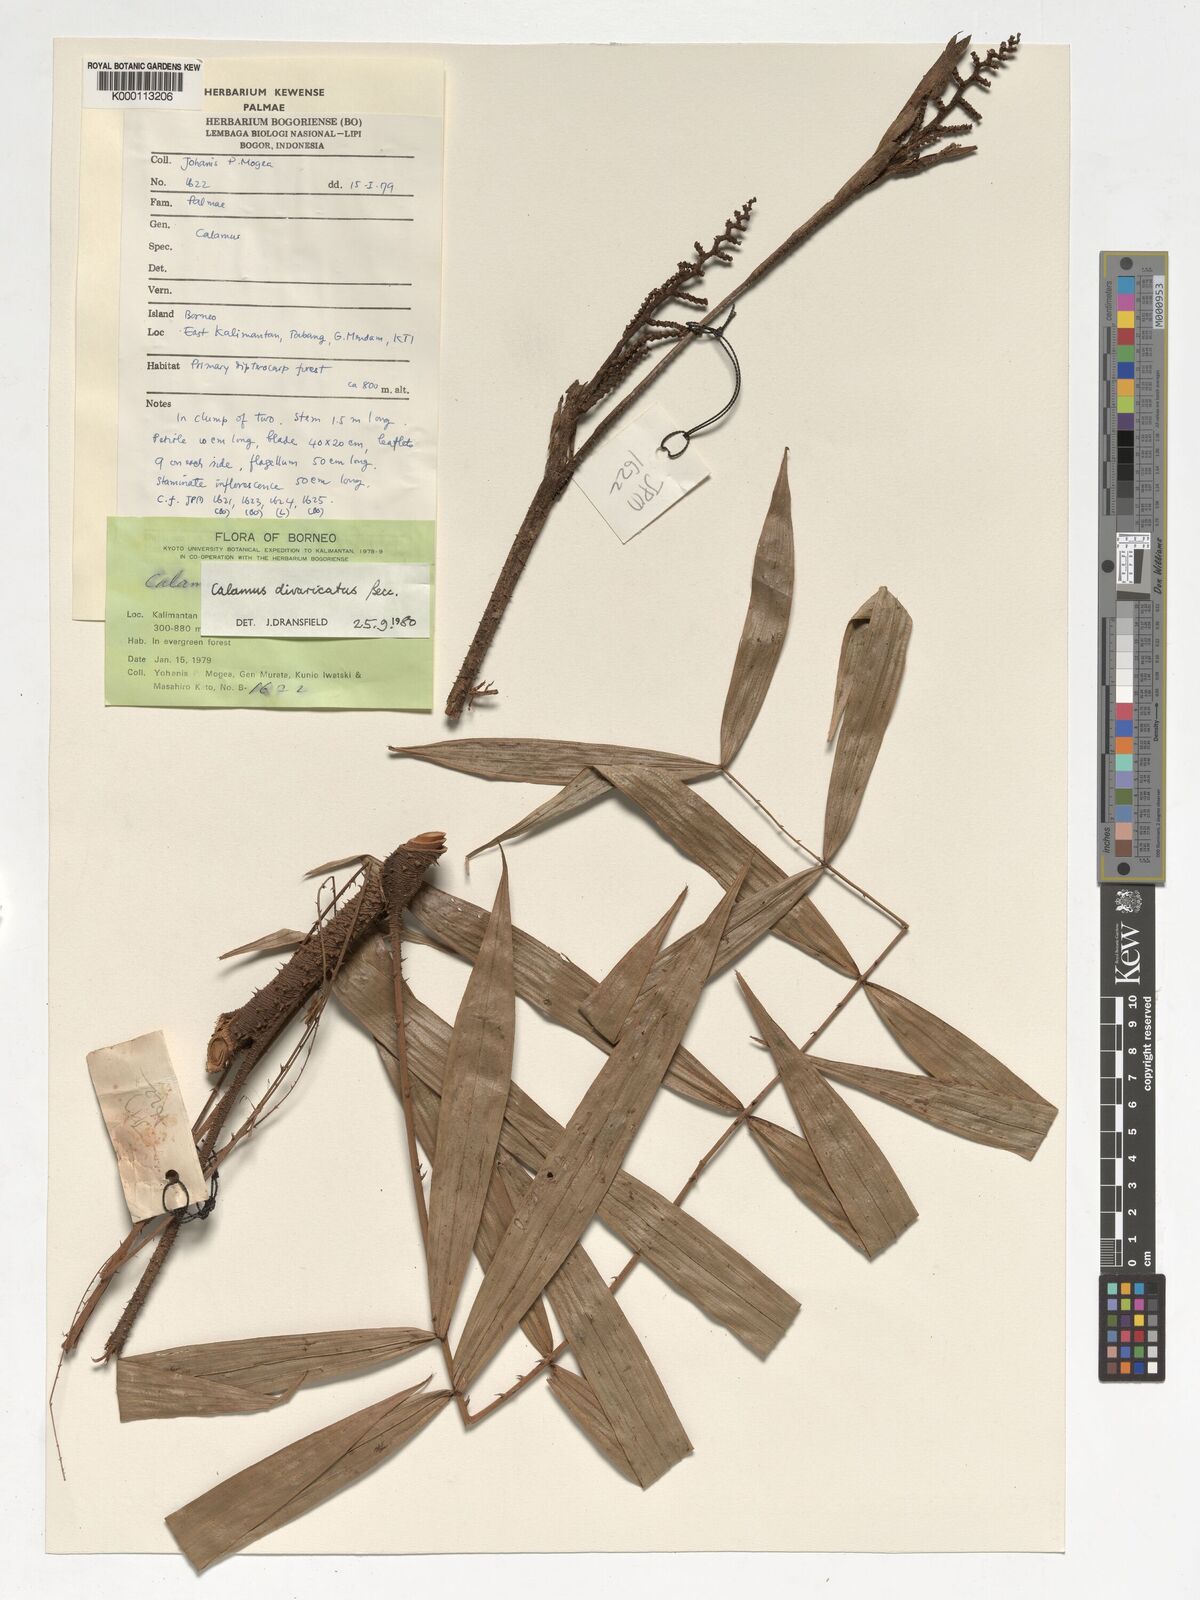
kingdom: Plantae
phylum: Tracheophyta
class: Liliopsida
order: Arecales
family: Arecaceae
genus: Calamus
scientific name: Calamus divaricatus
